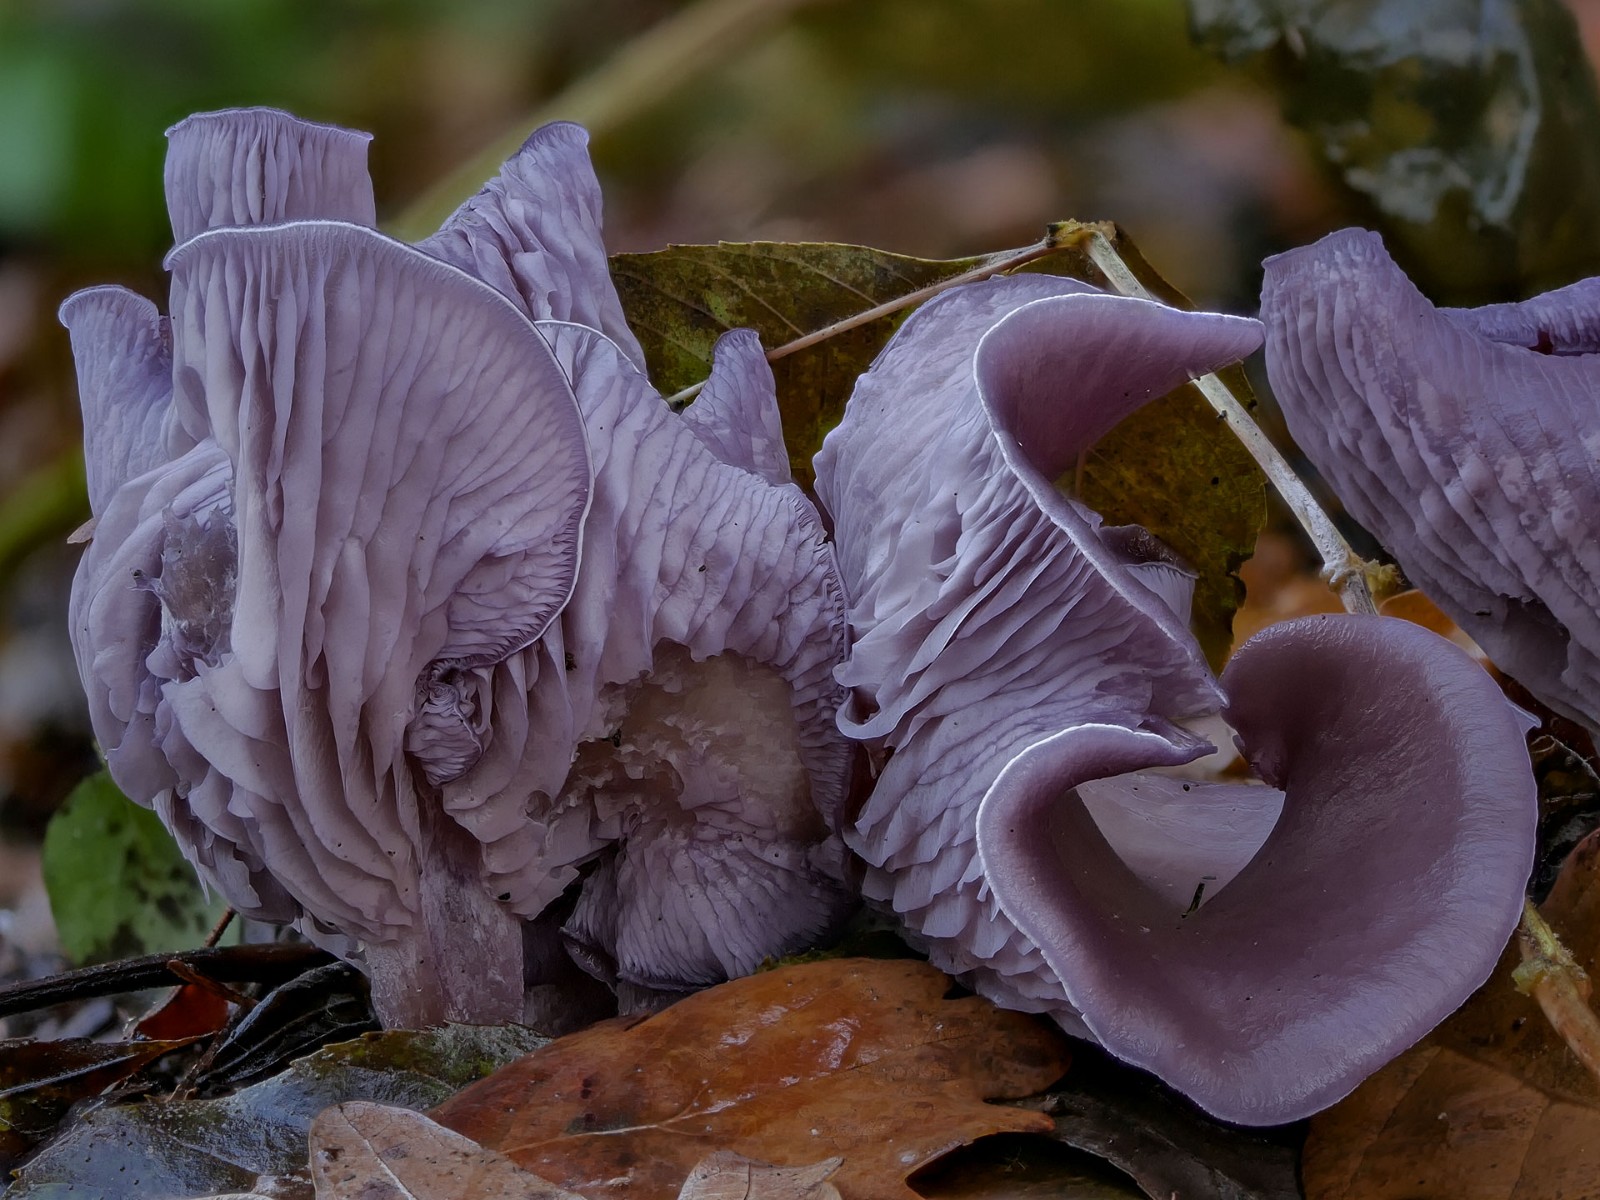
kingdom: Fungi
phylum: Basidiomycota
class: Agaricomycetes
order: Agaricales
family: Tricholomataceae
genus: Lepista
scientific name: Lepista nuda
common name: violet hekseringshat
